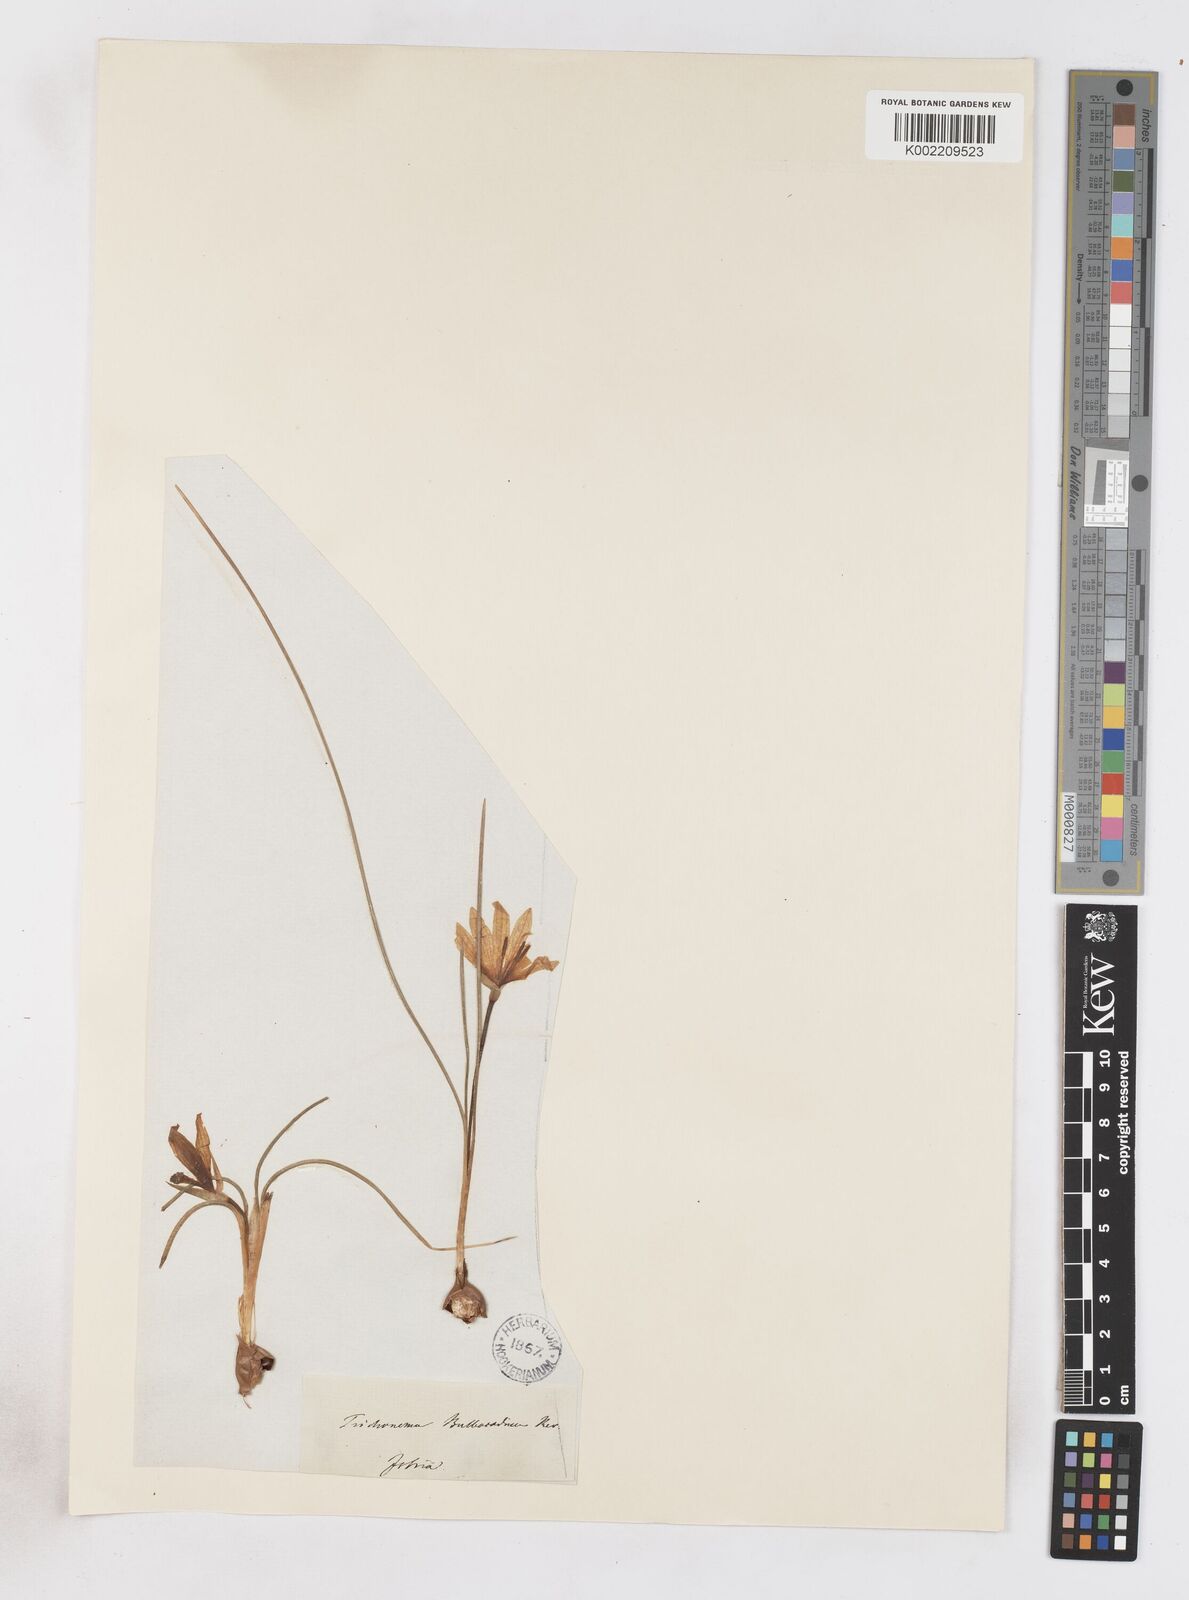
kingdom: Plantae
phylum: Tracheophyta
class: Liliopsida
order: Asparagales
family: Iridaceae
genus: Romulea
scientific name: Romulea bulbocodium
